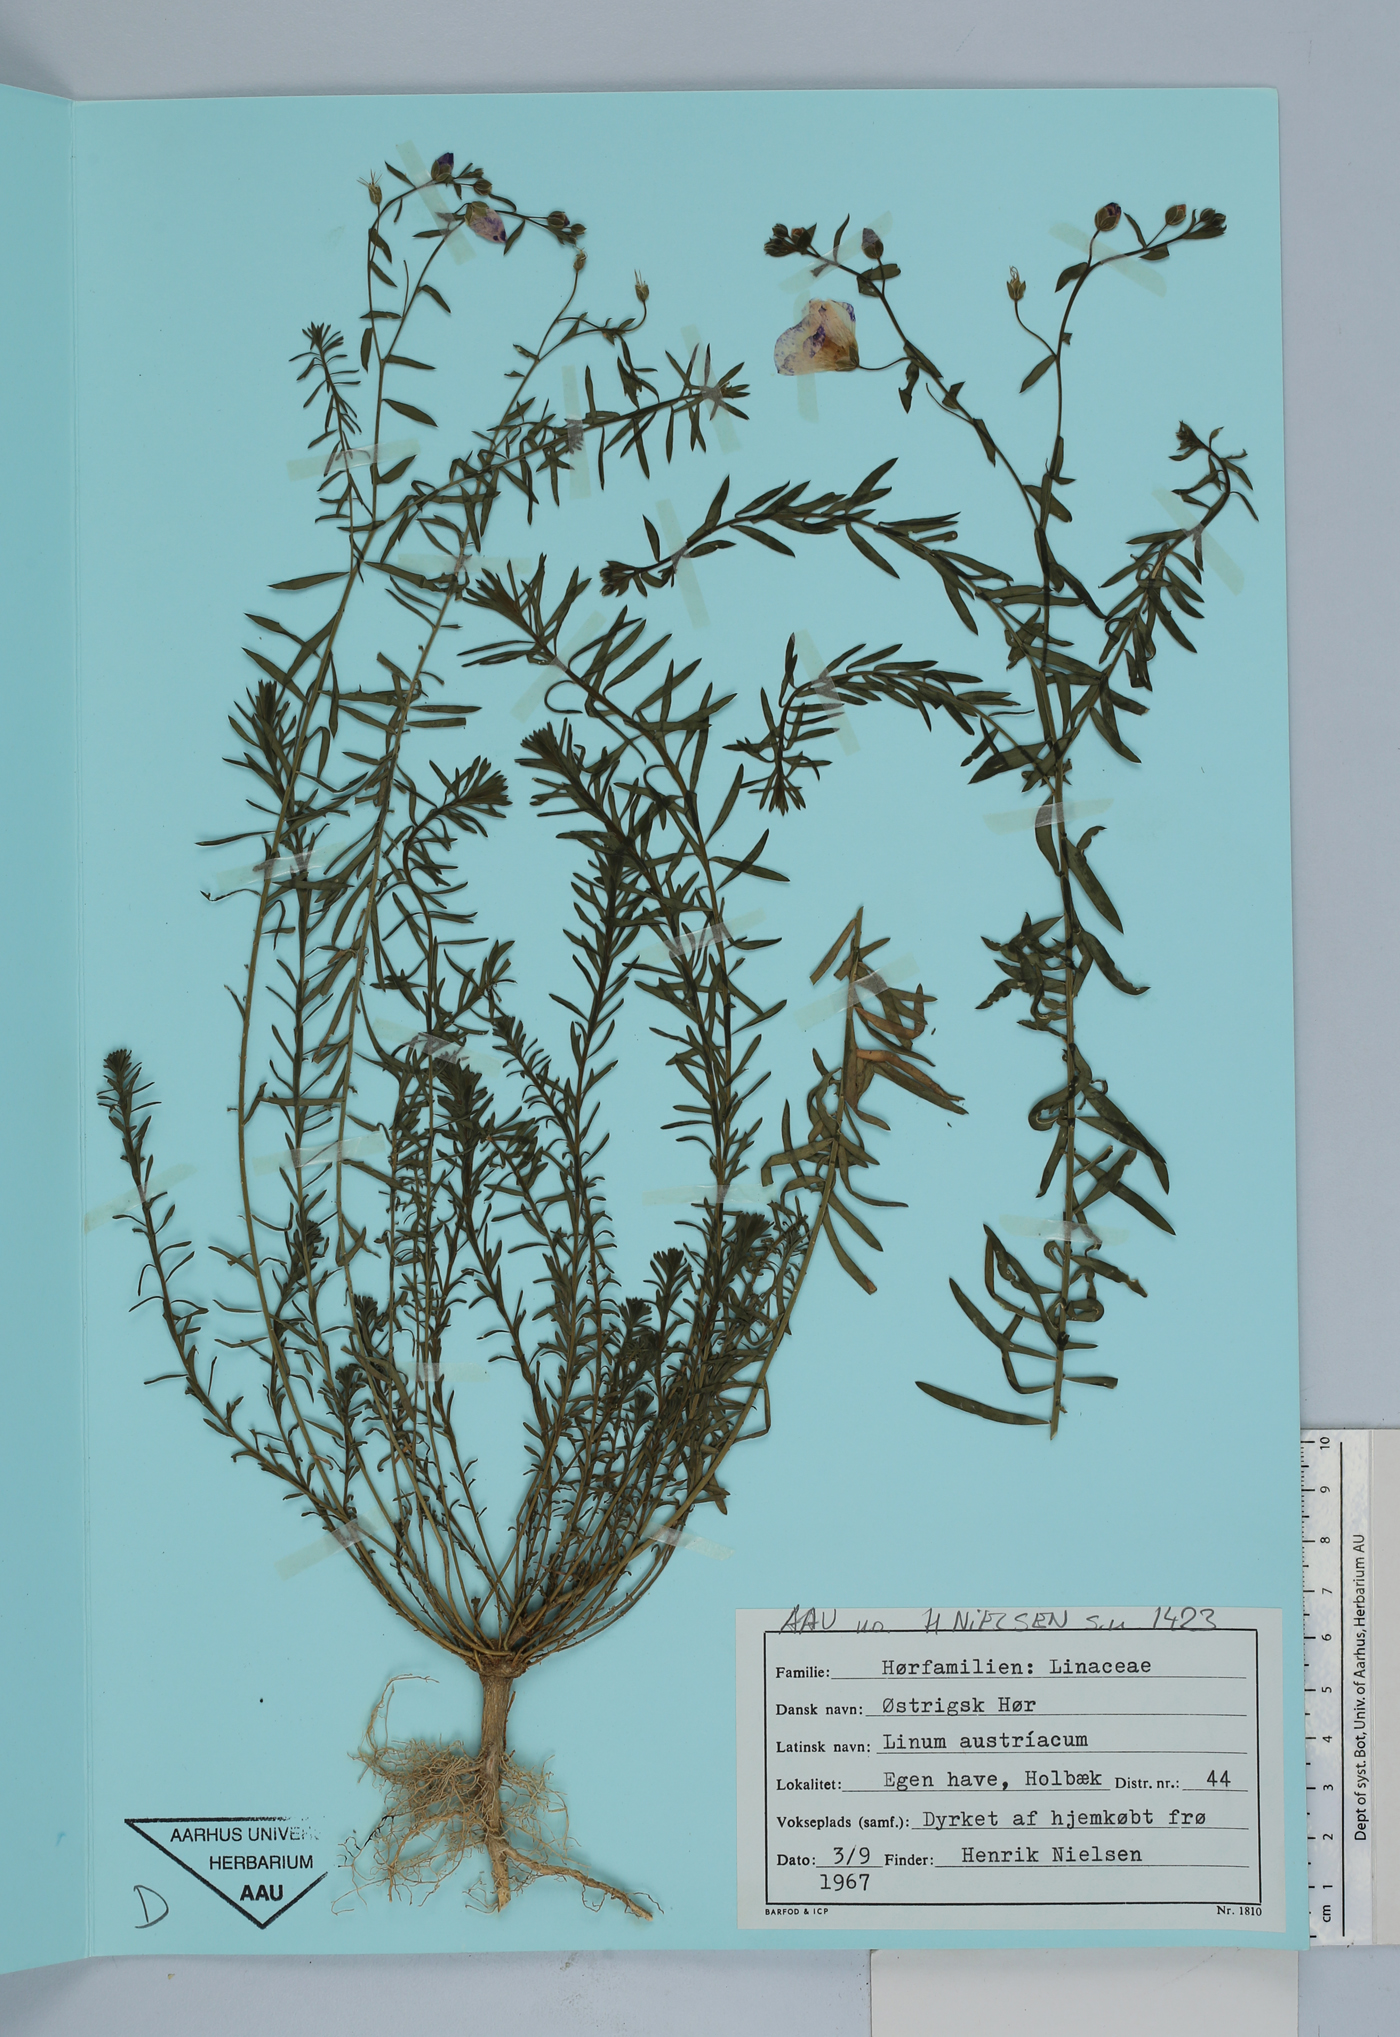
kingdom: Plantae
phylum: Tracheophyta
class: Magnoliopsida
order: Malpighiales
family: Linaceae
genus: Linum
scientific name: Linum austriacum
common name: Austrian flax
